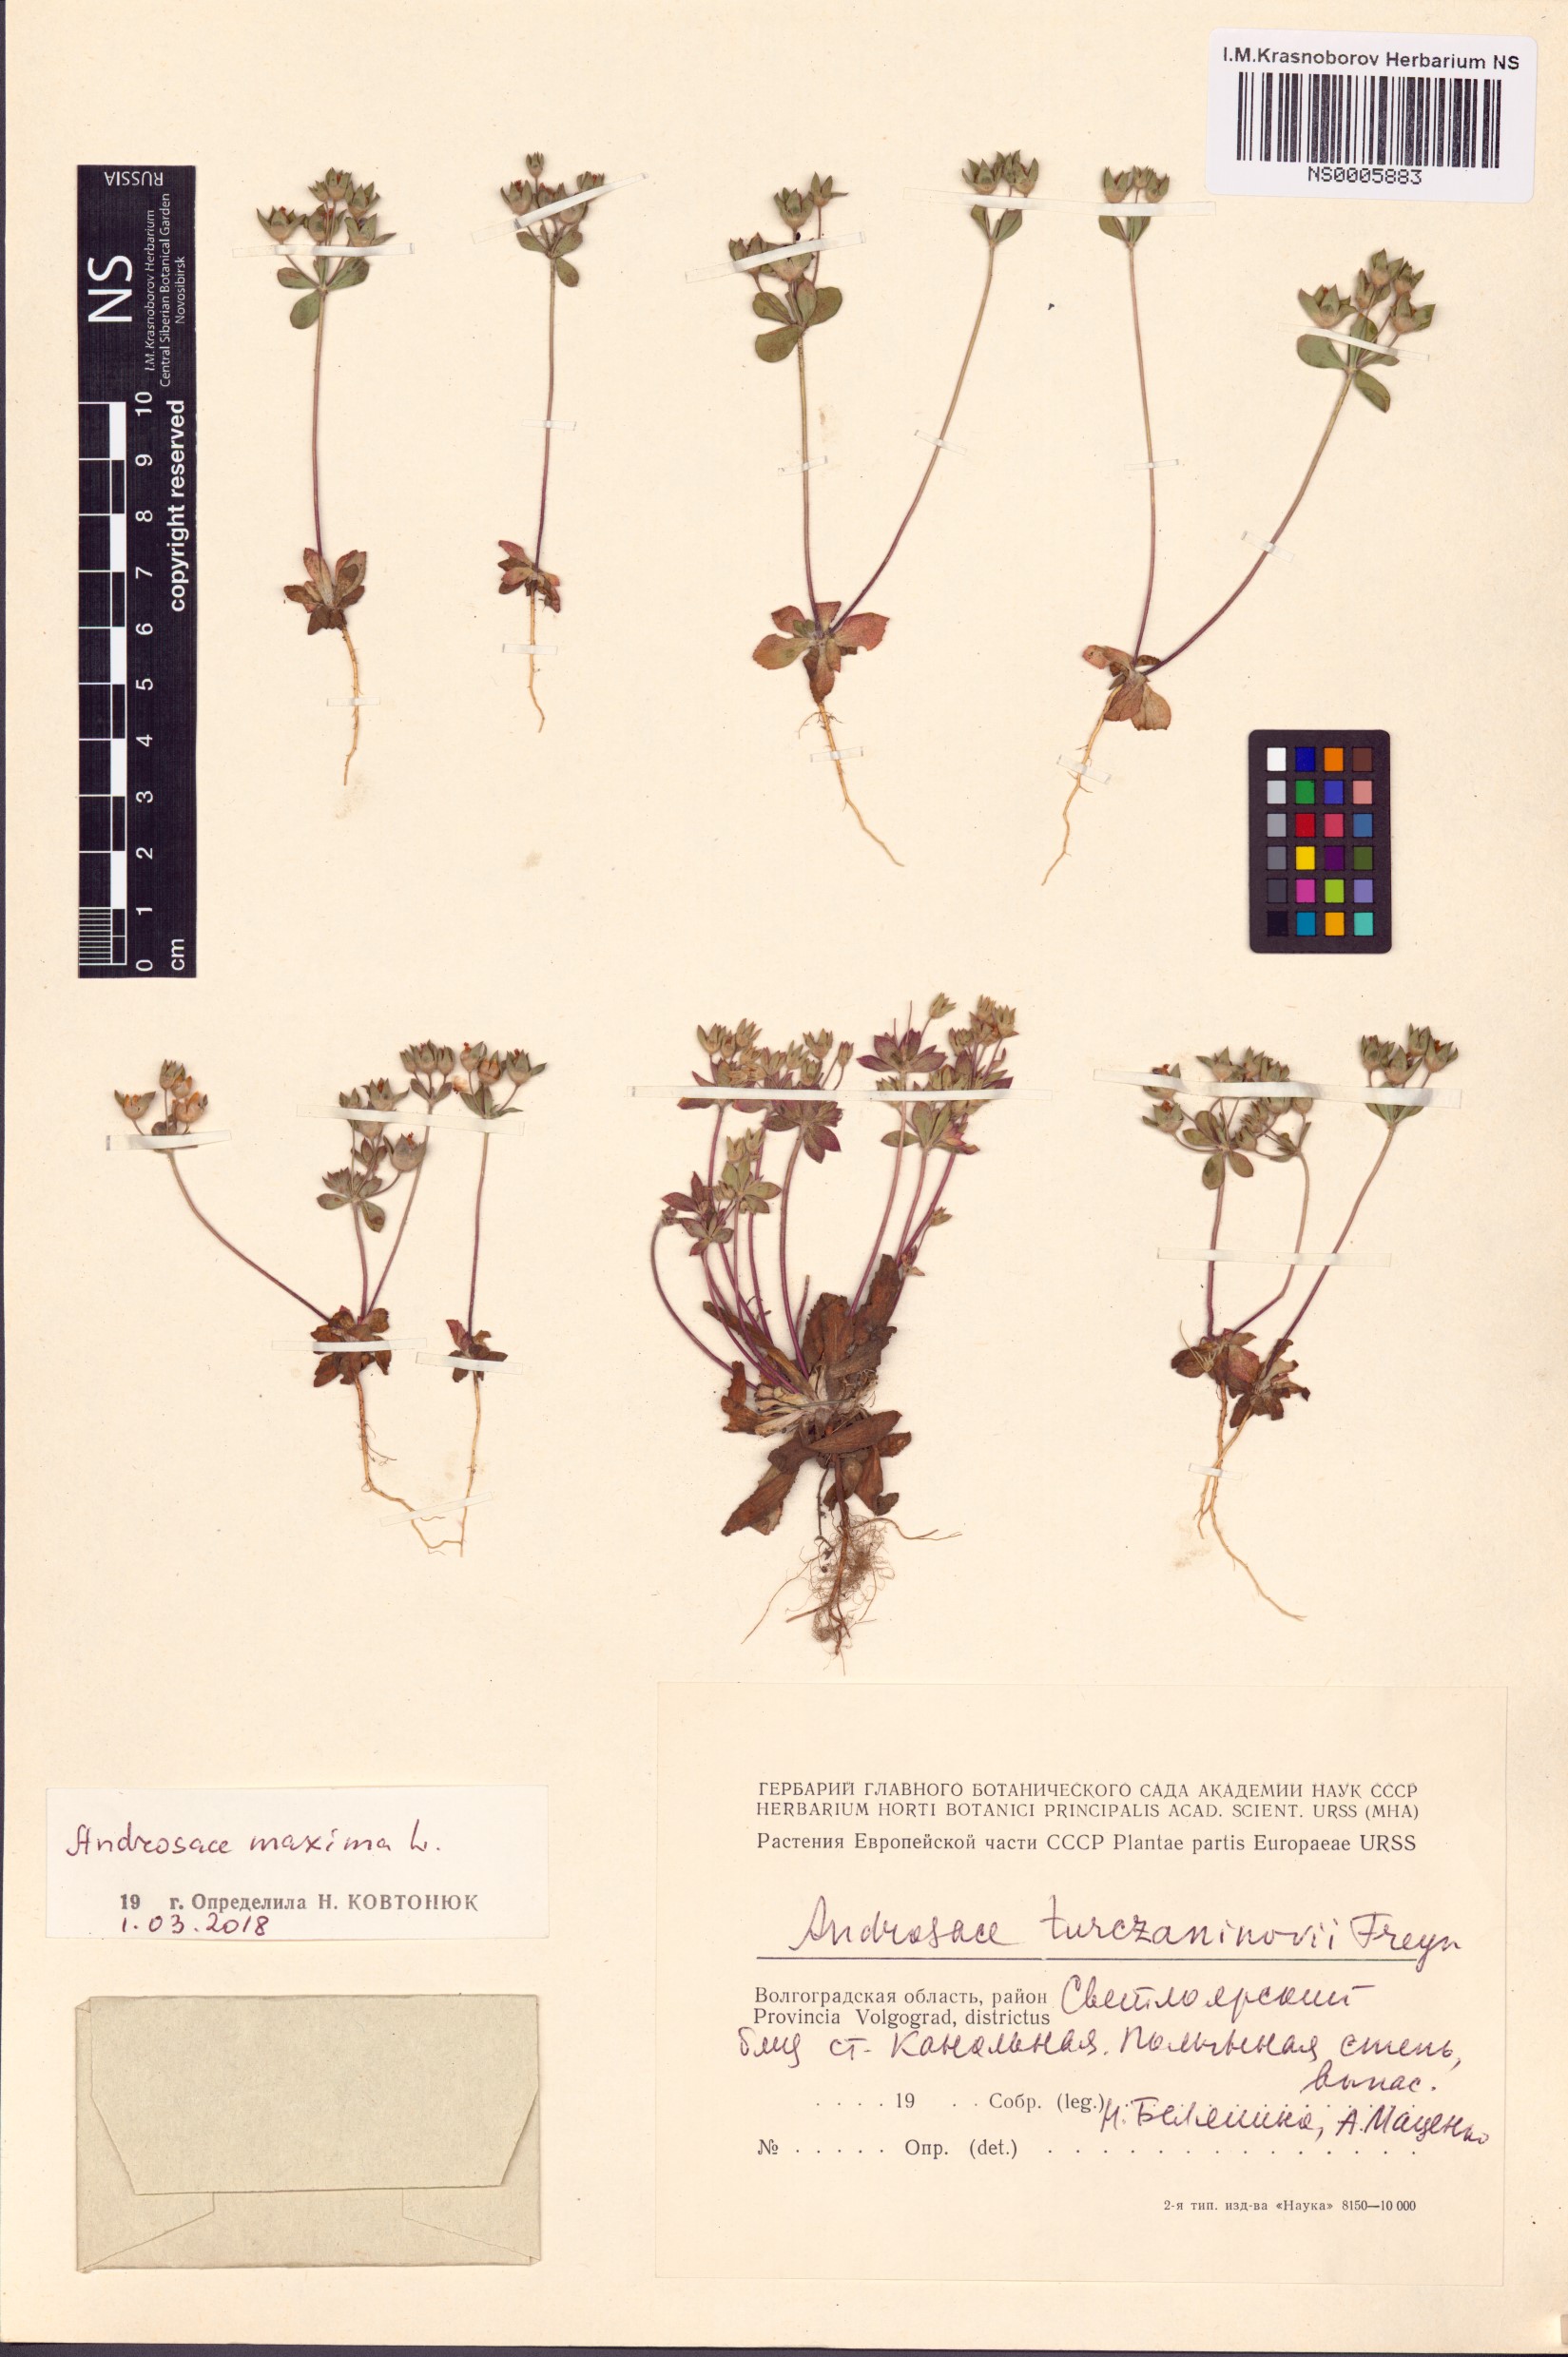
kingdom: Plantae
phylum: Tracheophyta
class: Magnoliopsida
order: Ericales
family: Primulaceae
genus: Androsace
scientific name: Androsace maxima
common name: Annual androsace
